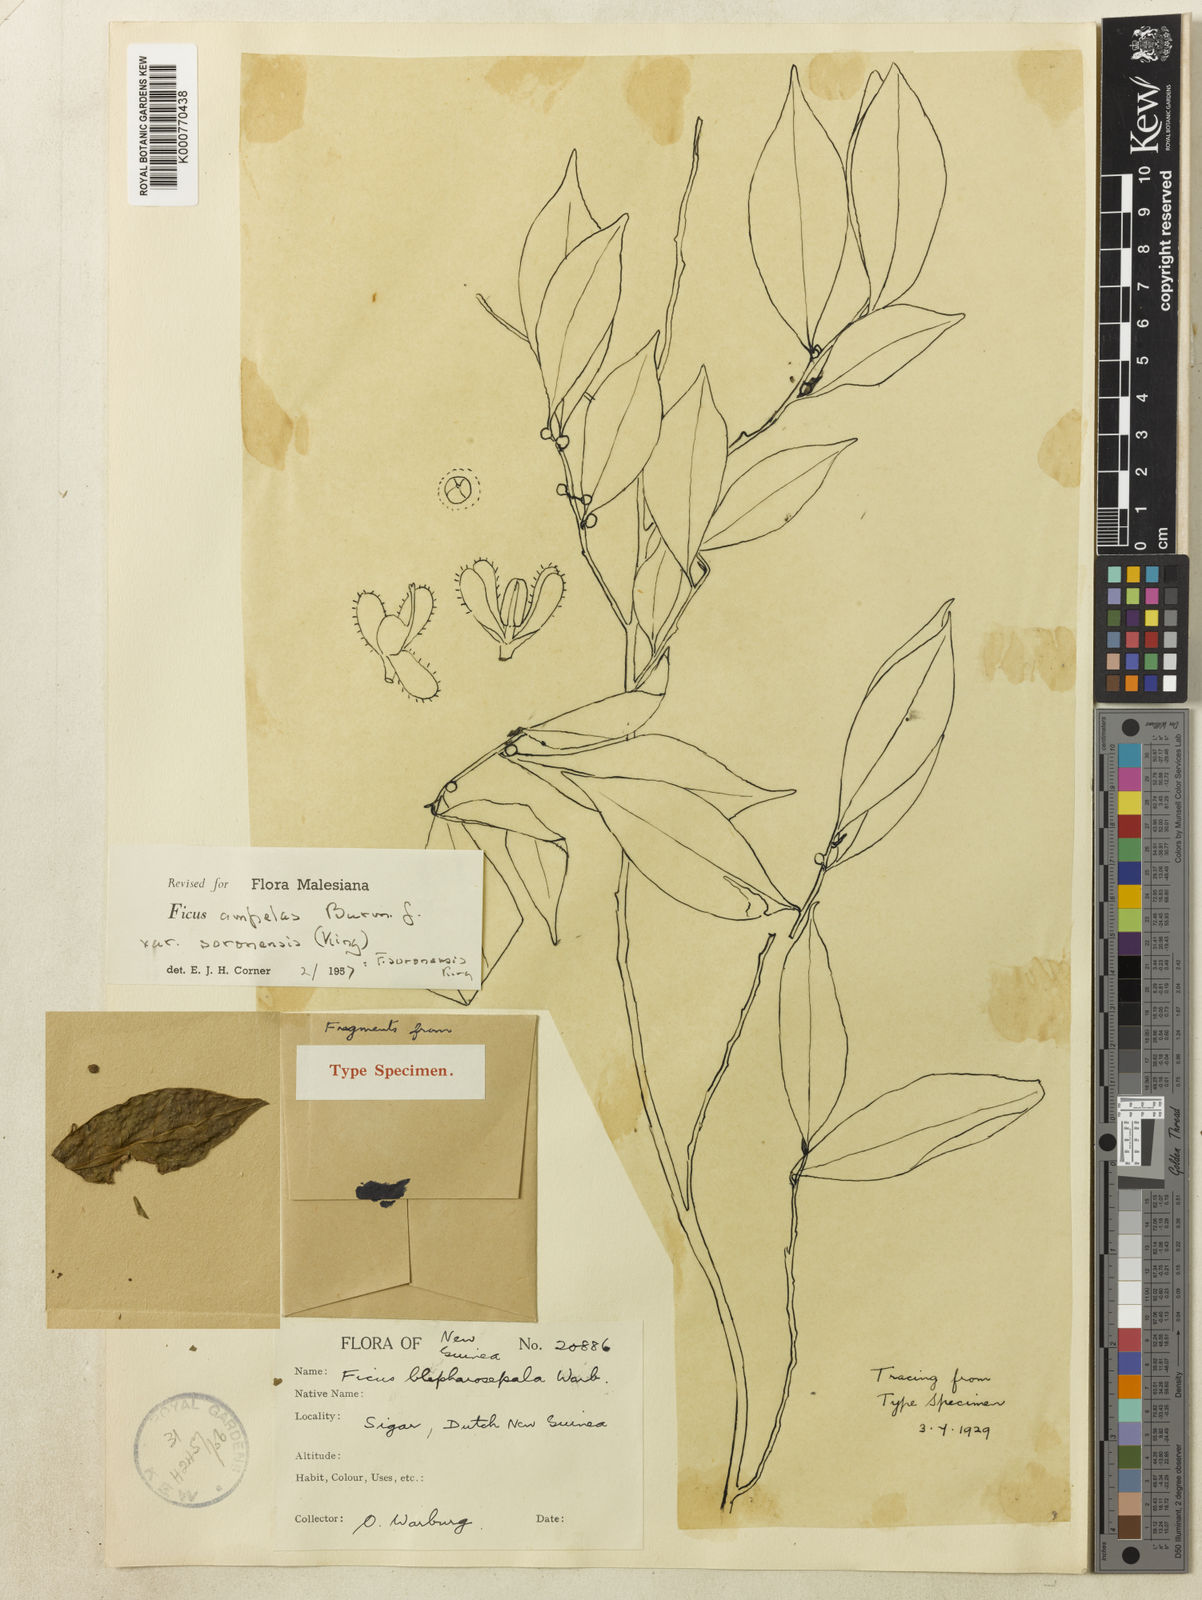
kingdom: Plantae
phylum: Tracheophyta
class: Magnoliopsida
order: Rosales
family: Moraceae
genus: Ficus
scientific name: Ficus
